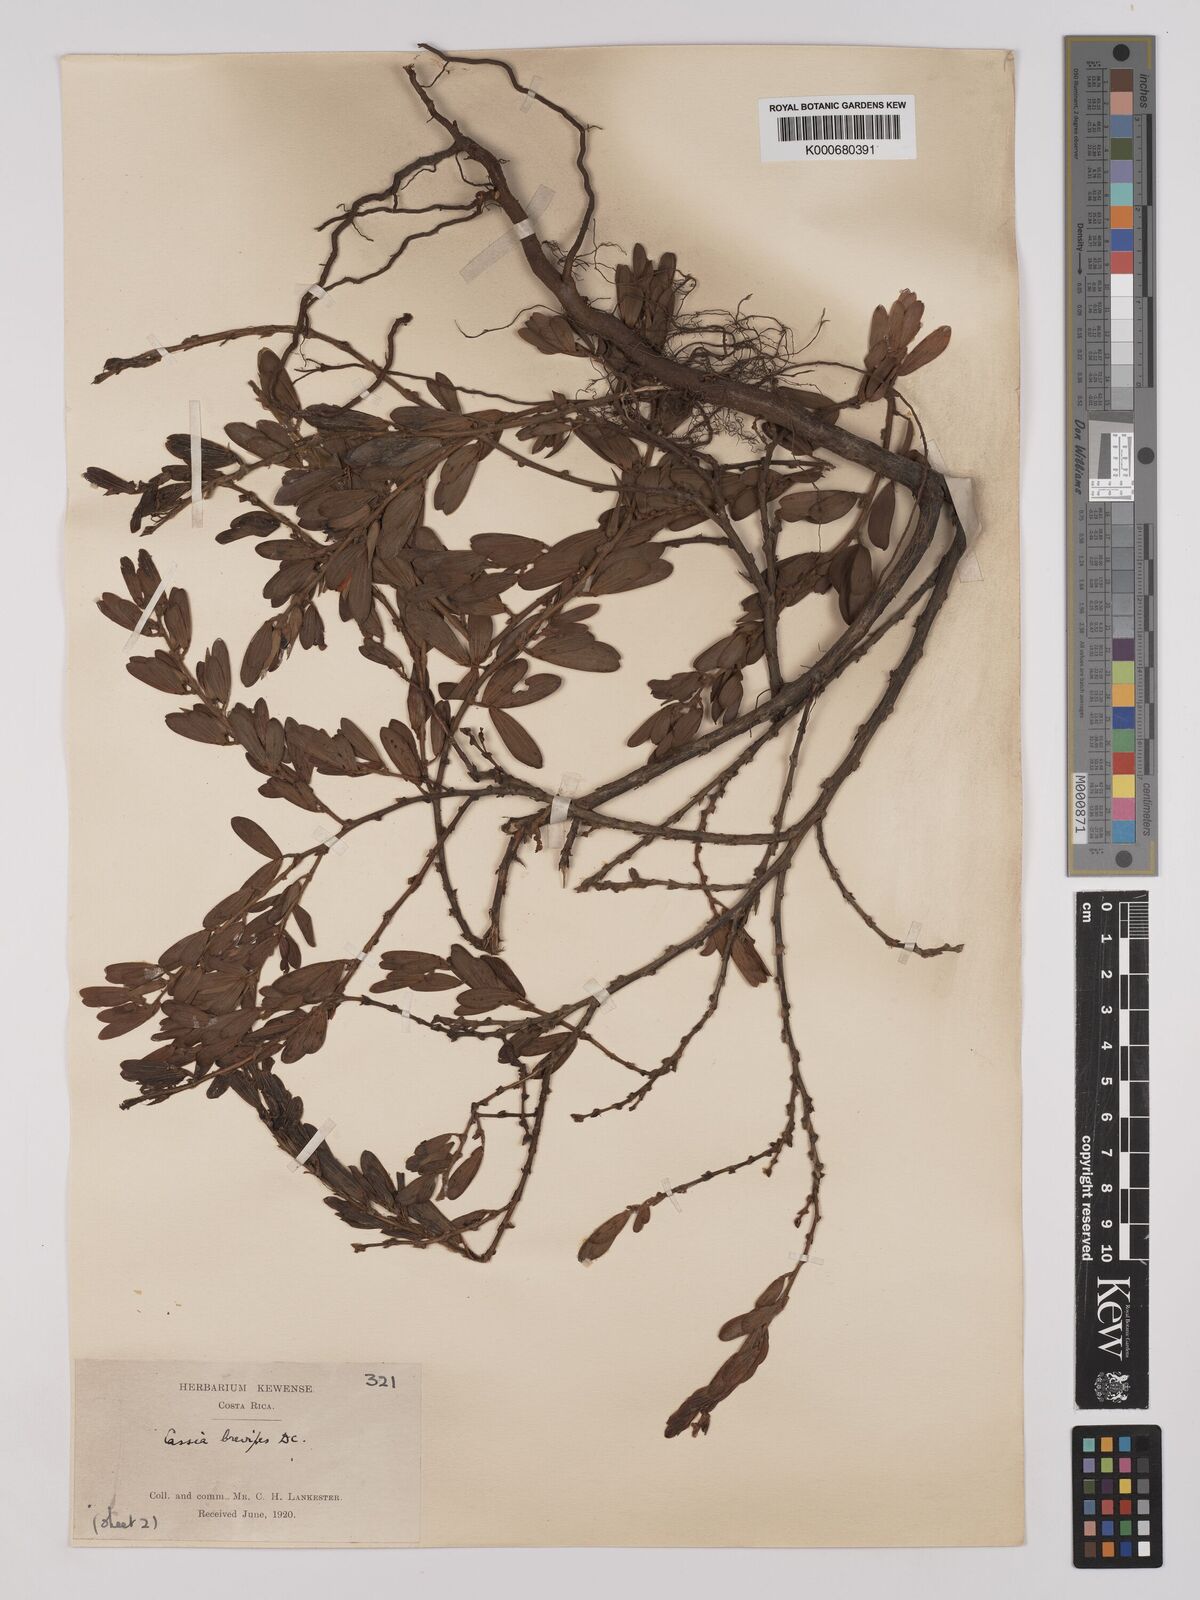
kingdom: Plantae
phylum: Tracheophyta
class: Magnoliopsida
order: Fabales
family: Fabaceae
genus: Chamaecrista
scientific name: Chamaecrista desvauxii
